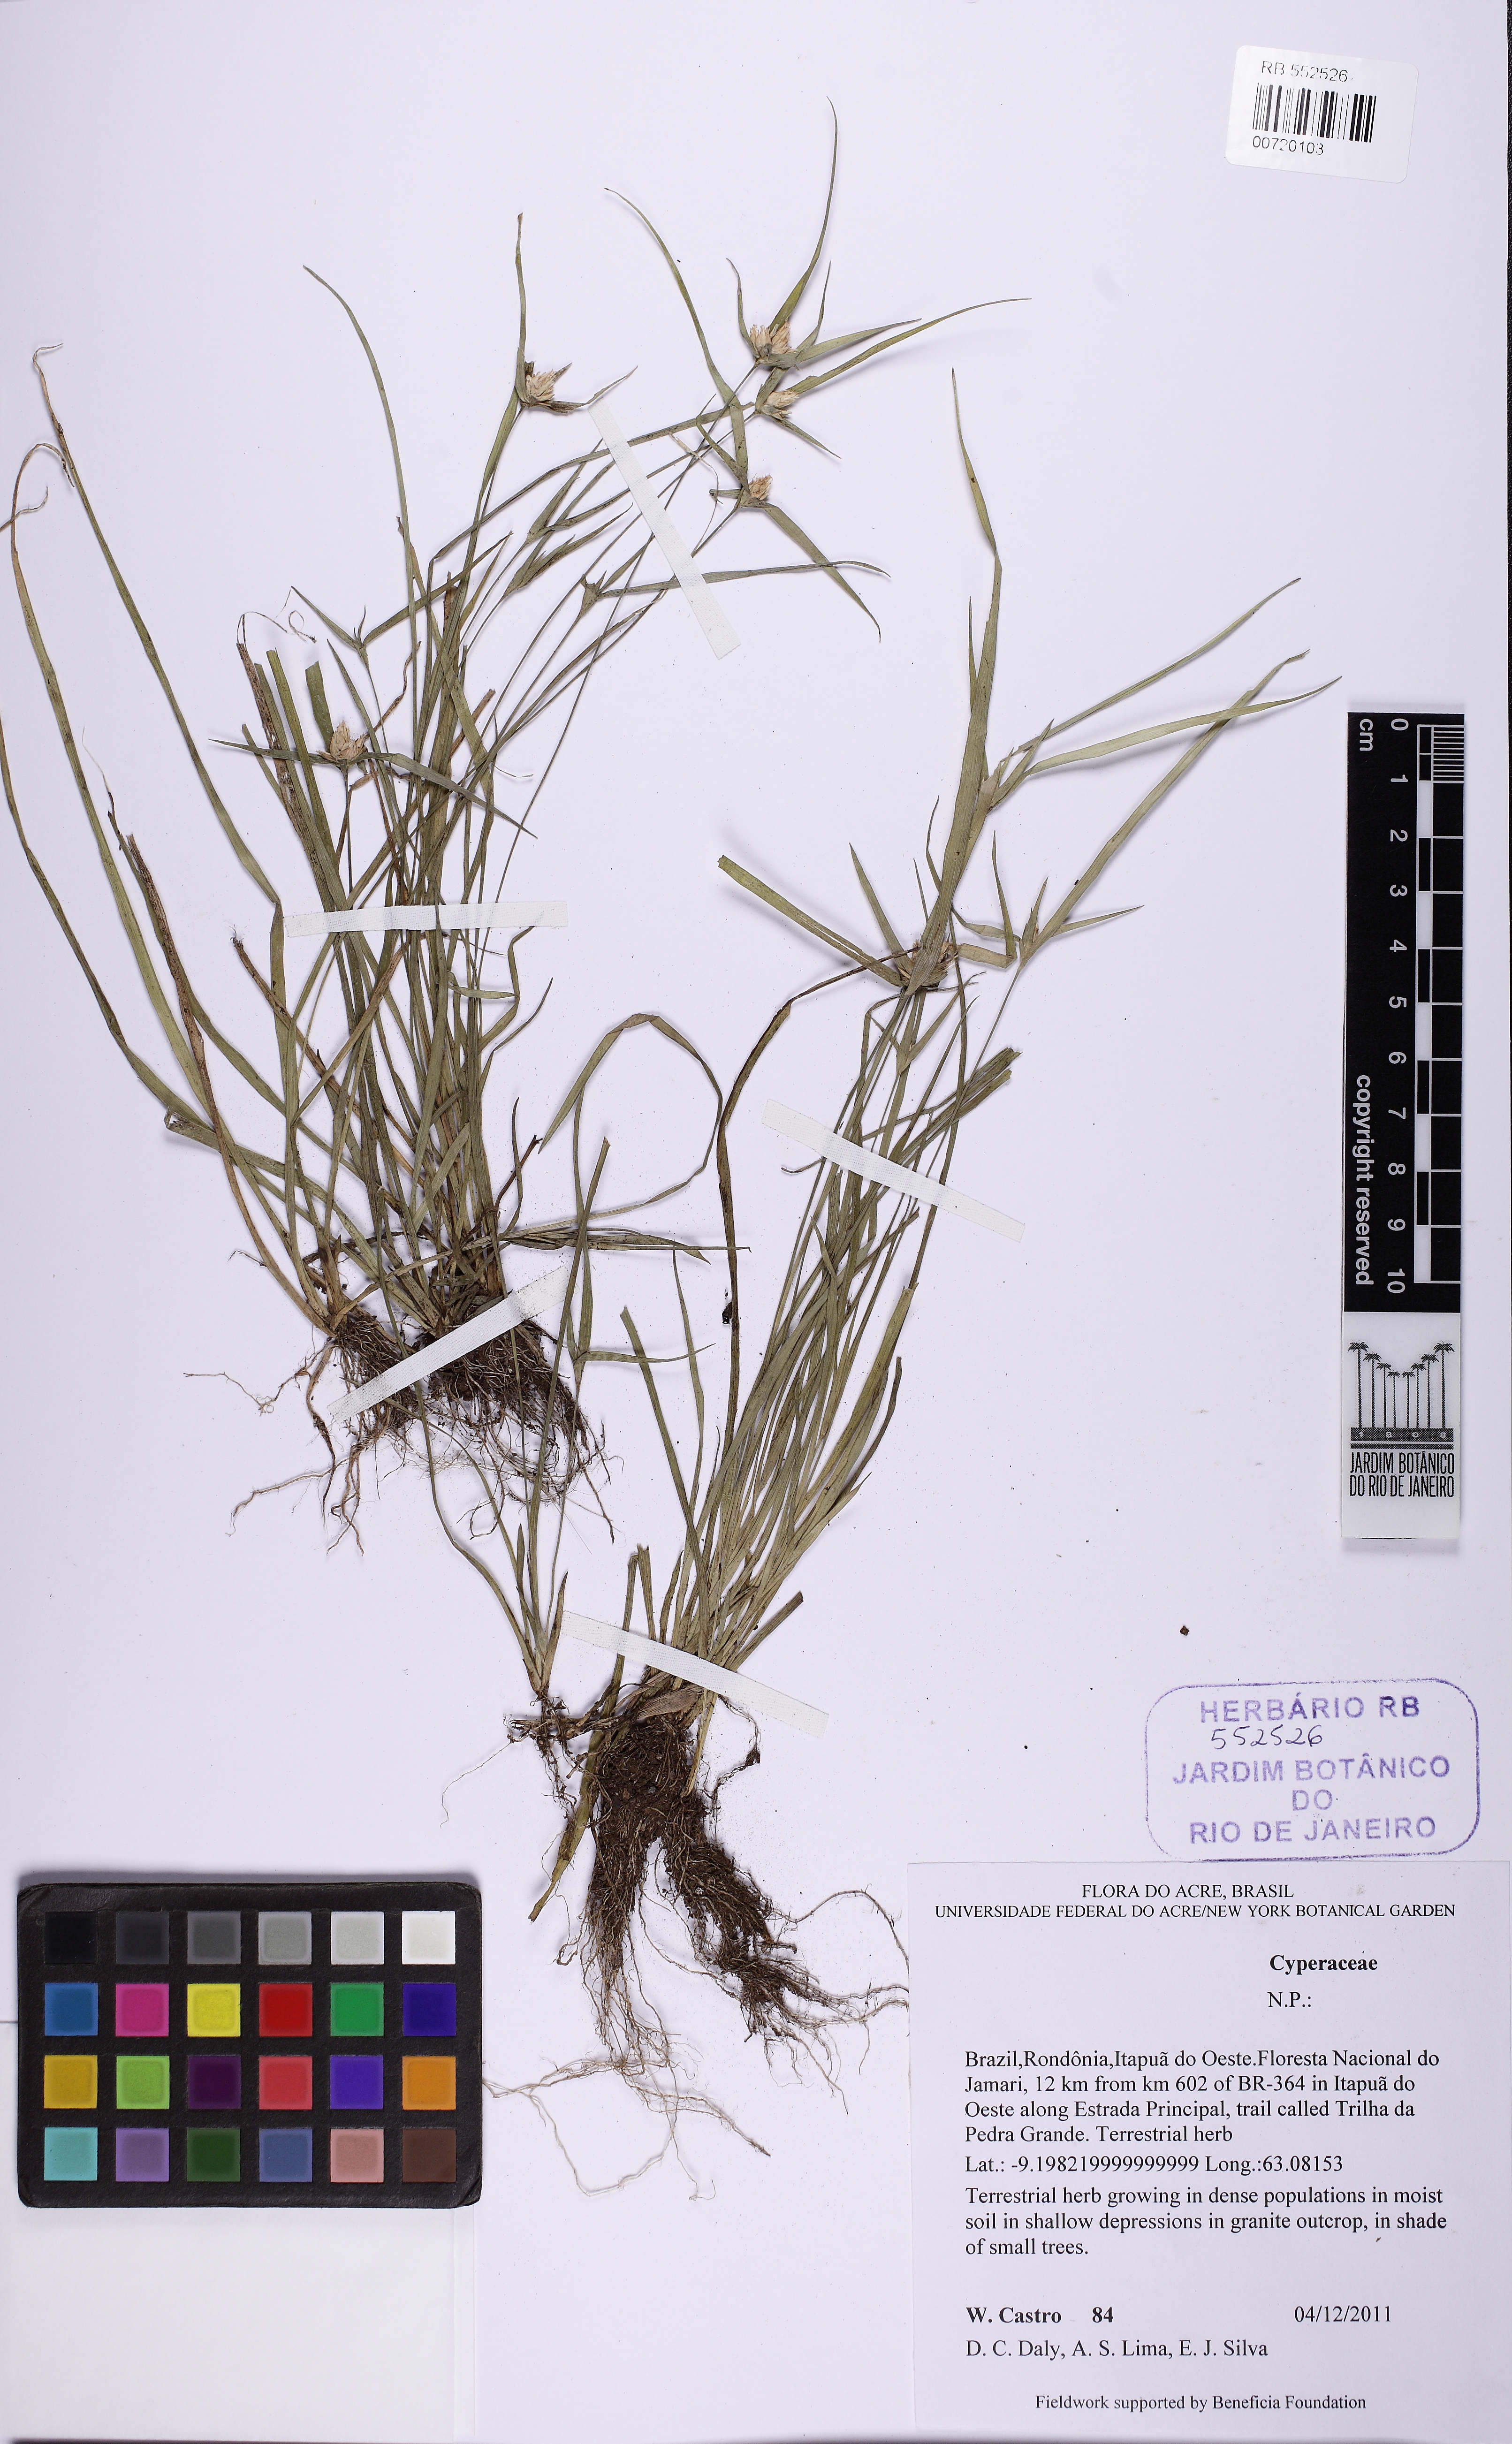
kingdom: Plantae
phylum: Tracheophyta
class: Liliopsida
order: Poales
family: Cyperaceae
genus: Rhynchospora
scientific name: Rhynchospora nervosa
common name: Star sedge
